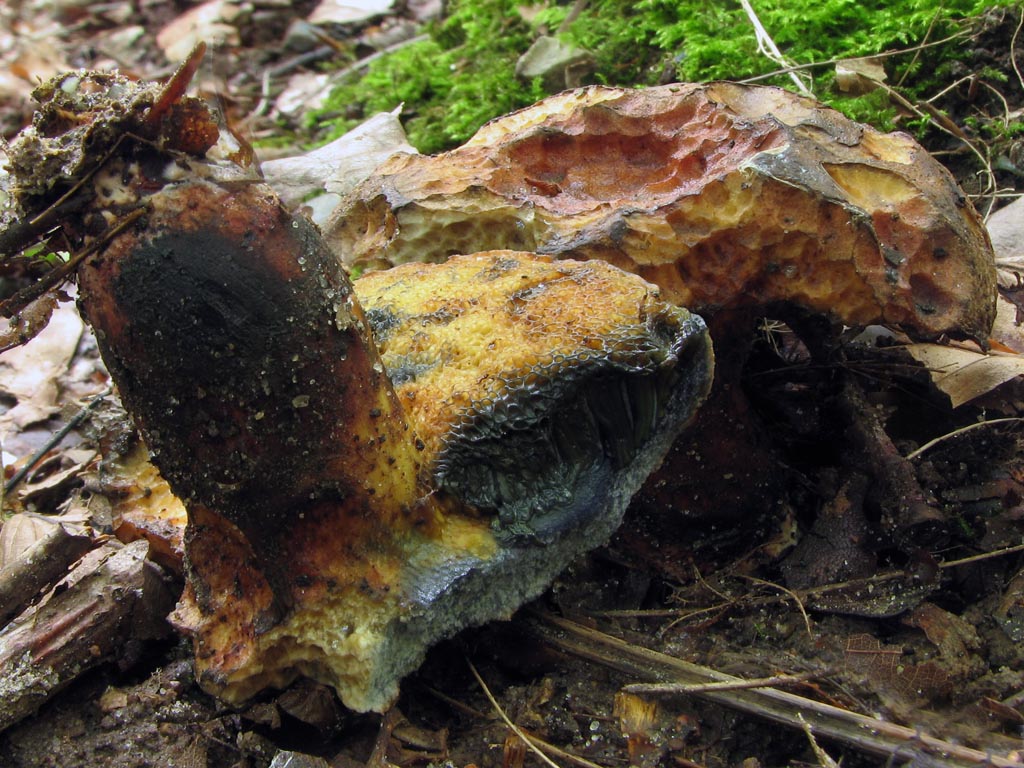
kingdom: Fungi
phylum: Basidiomycota
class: Agaricomycetes
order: Boletales
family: Boletaceae
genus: Cyanoboletus
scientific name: Cyanoboletus pulverulentus
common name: sortblånende rørhat
